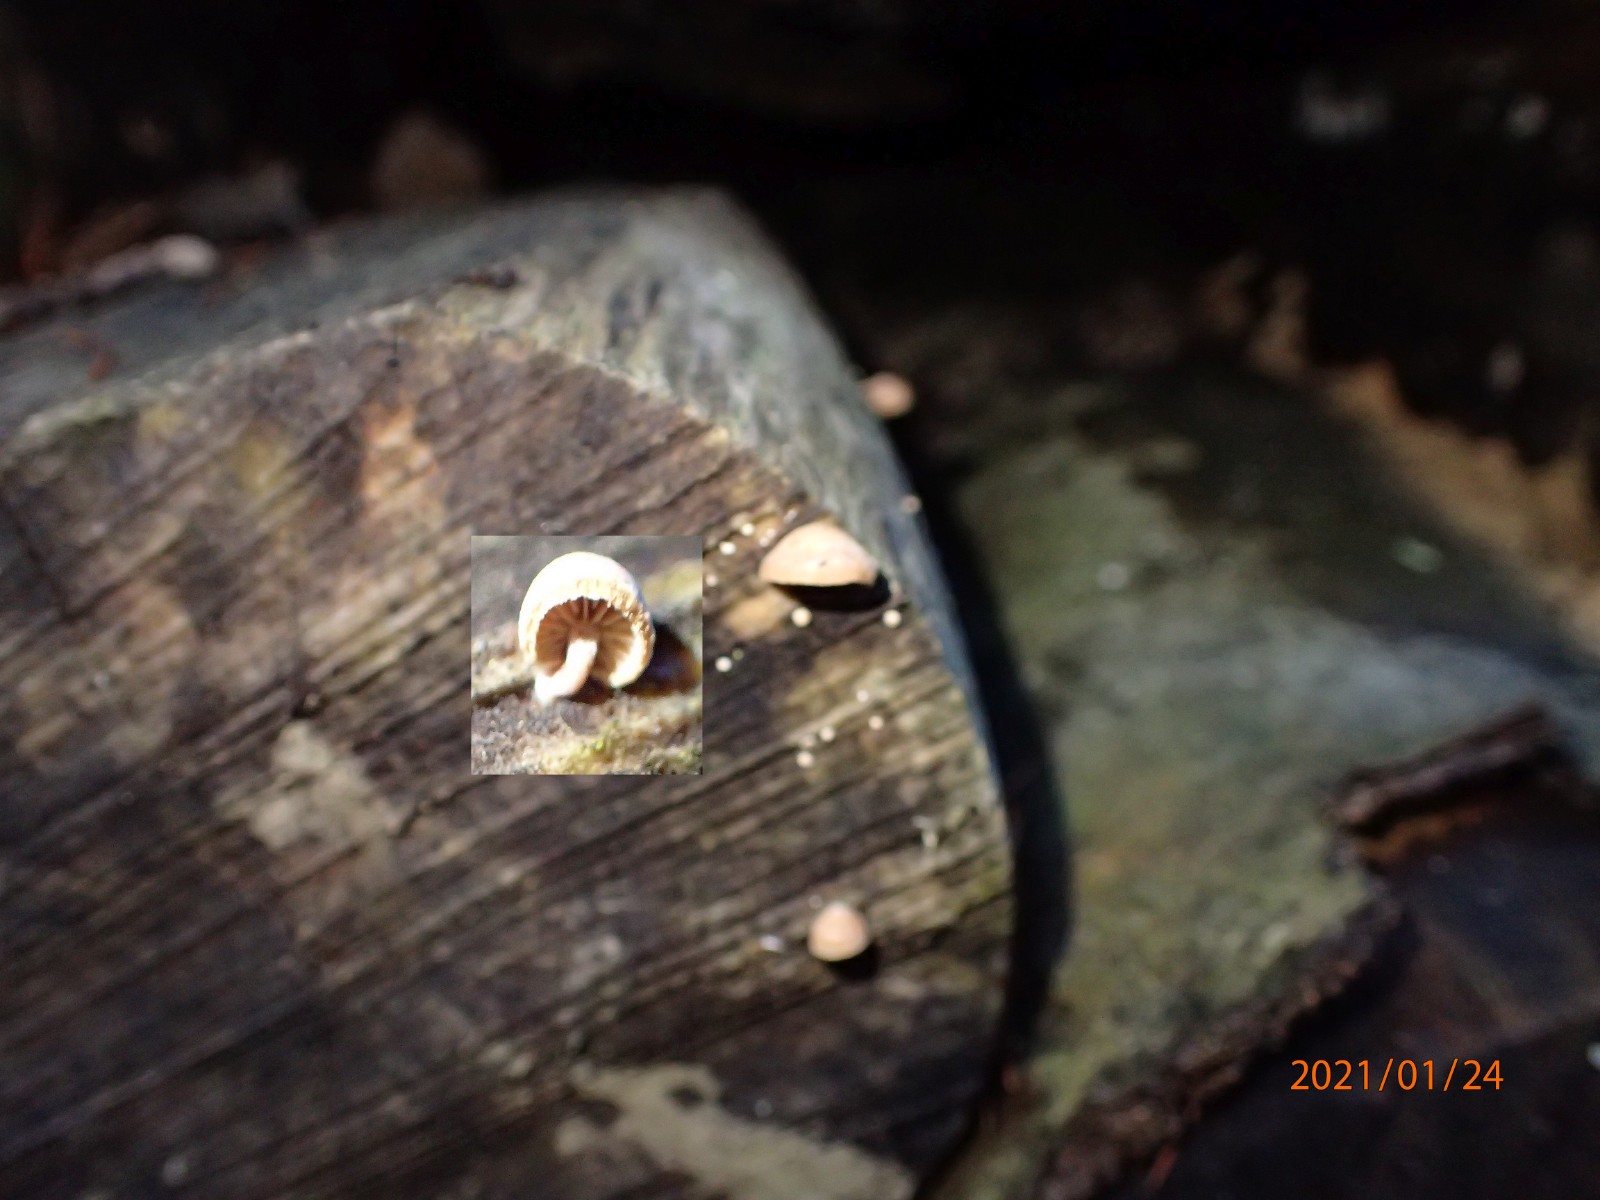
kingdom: Fungi
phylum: Basidiomycota
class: Agaricomycetes
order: Agaricales
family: Strophariaceae
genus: Deconica
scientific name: Deconica horizontalis
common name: ved-stråhat
